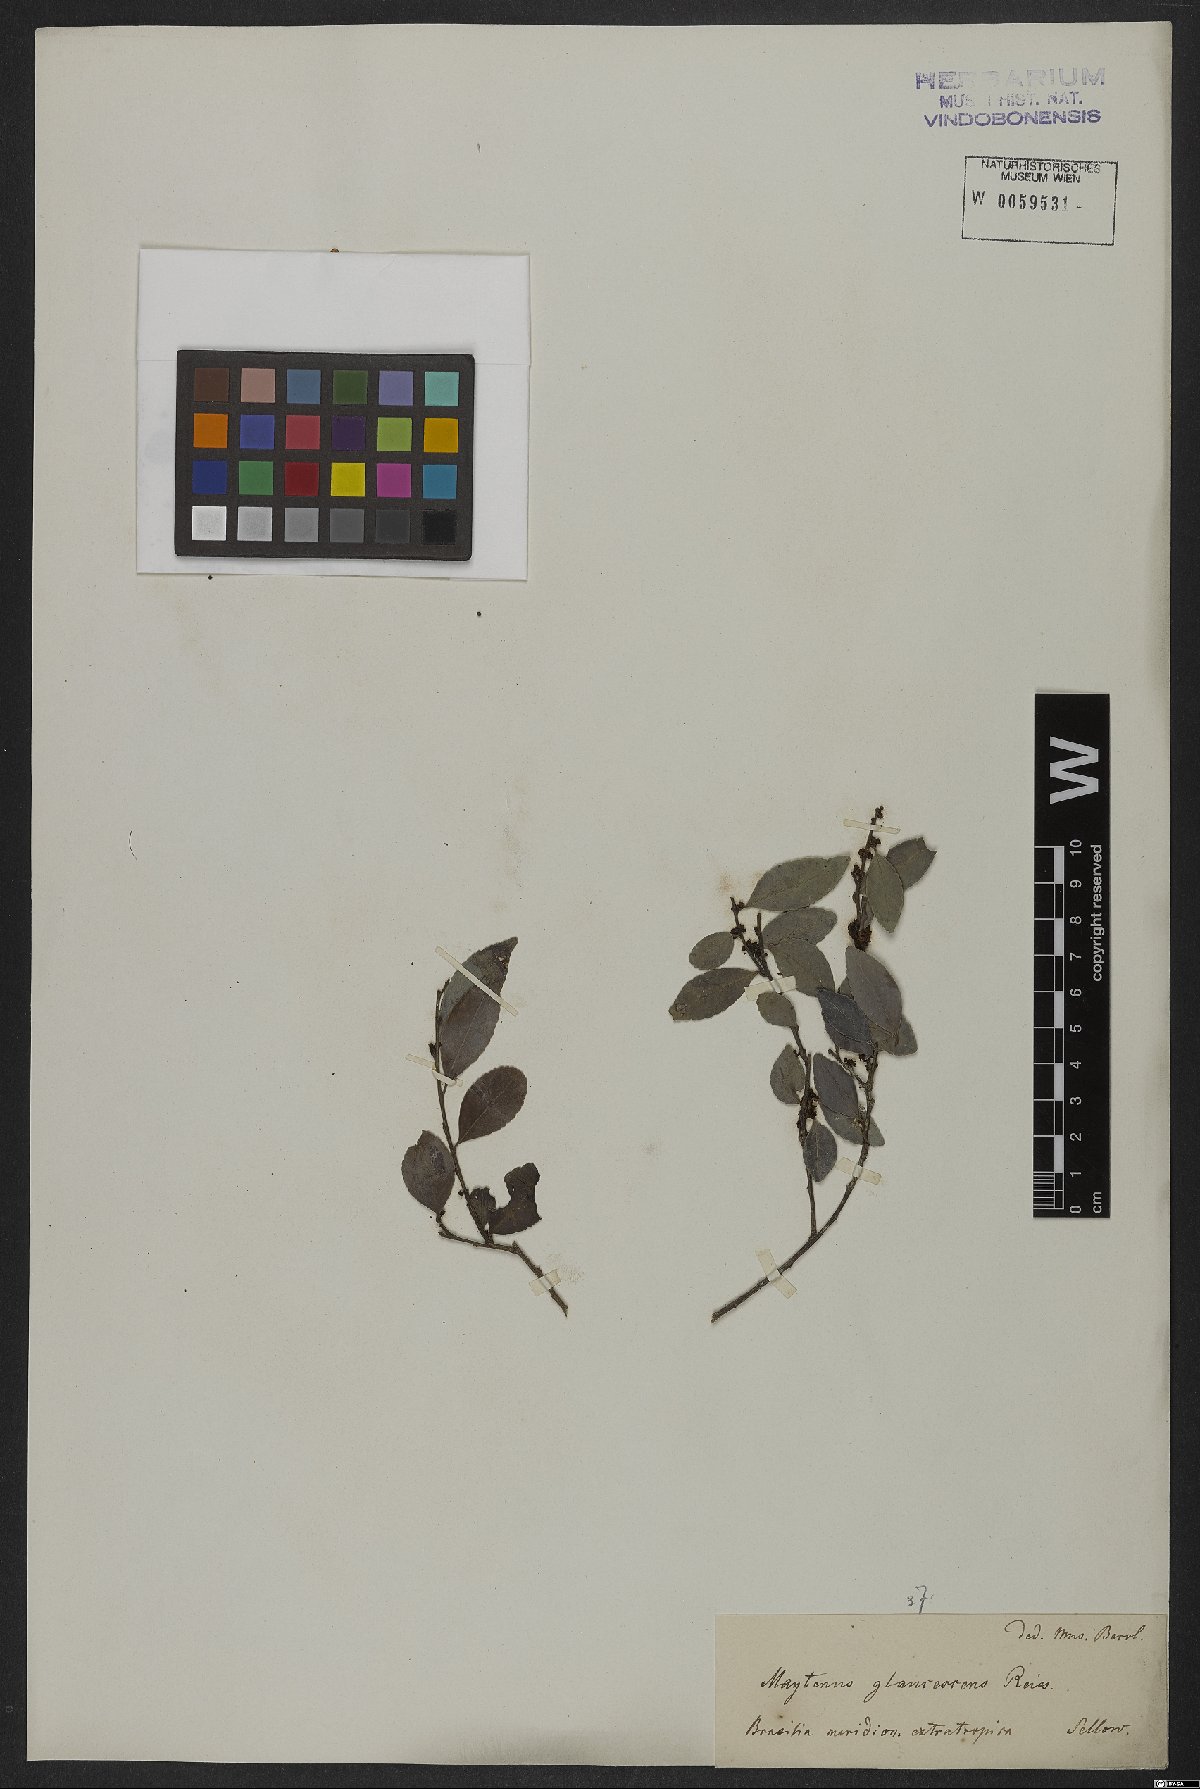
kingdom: Plantae
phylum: Tracheophyta
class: Magnoliopsida
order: Celastrales
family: Celastraceae
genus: Monteverdia
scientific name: Monteverdia glaucescens
